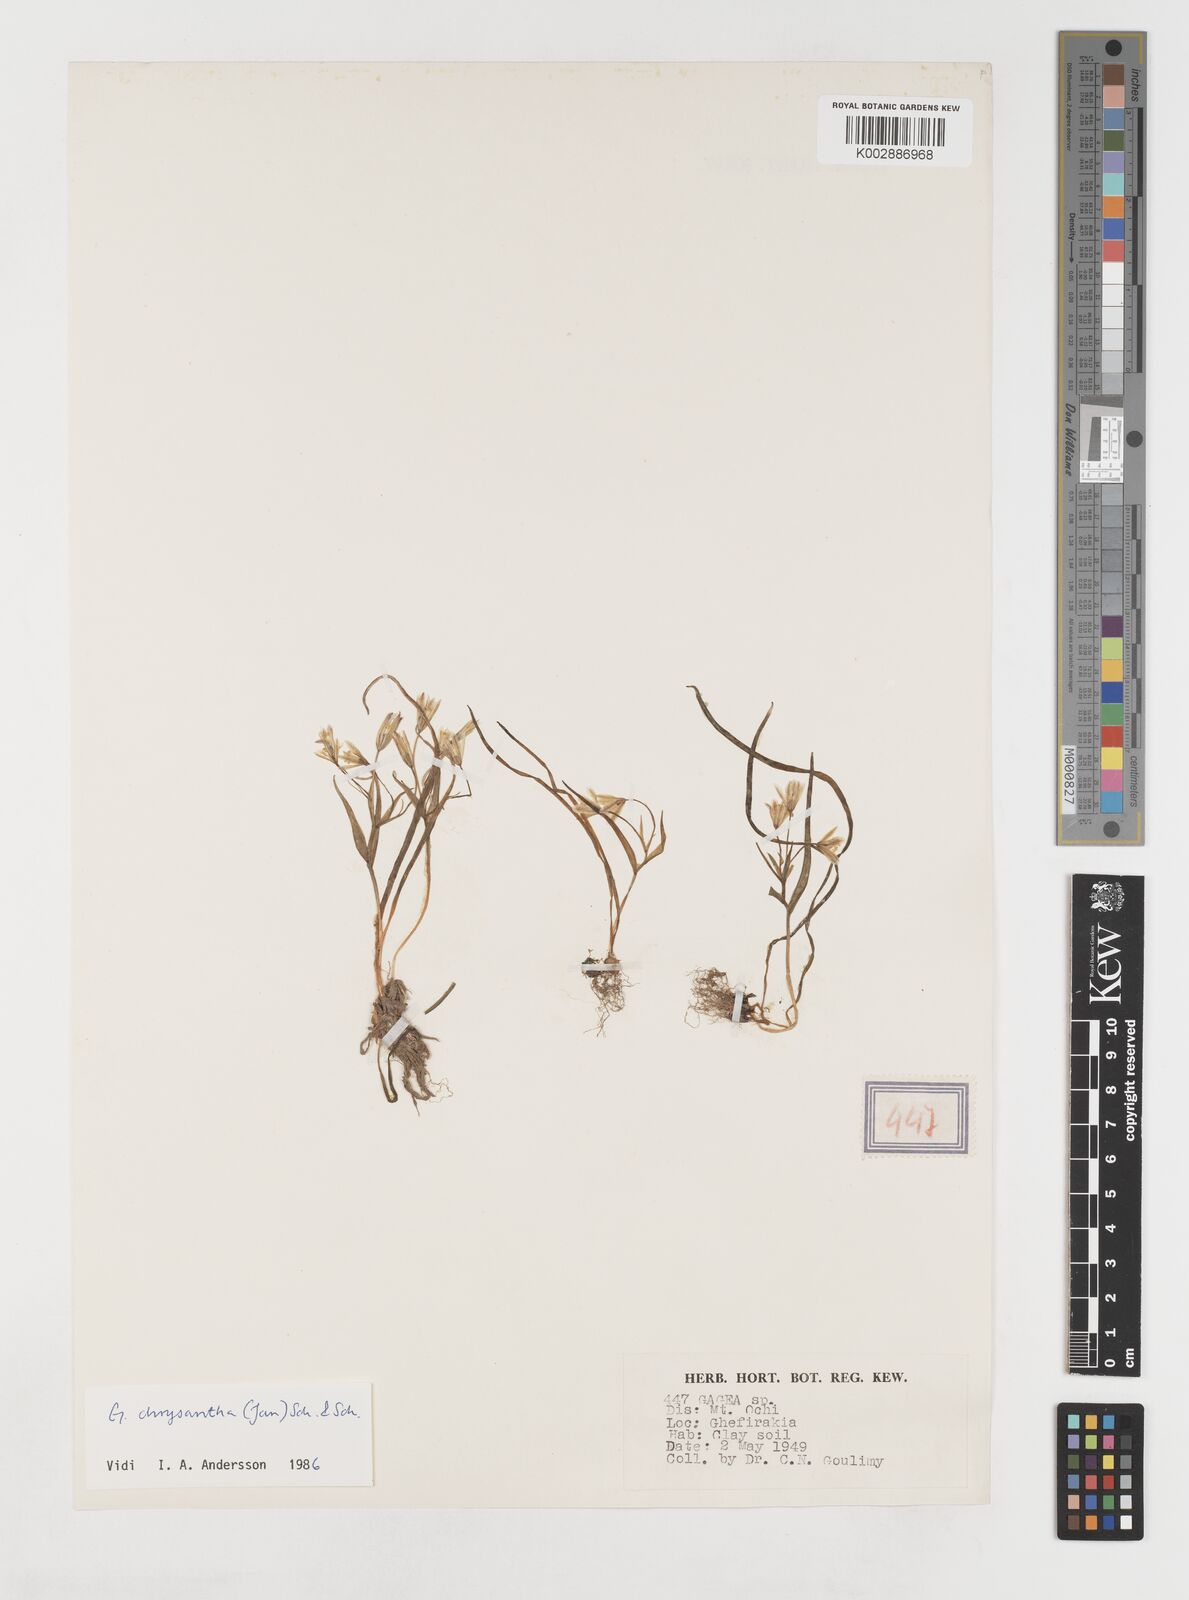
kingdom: Plantae
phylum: Tracheophyta
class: Liliopsida
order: Liliales
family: Liliaceae
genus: Gagea
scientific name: Gagea amblyopetala
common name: Blunt-flowered gagea
